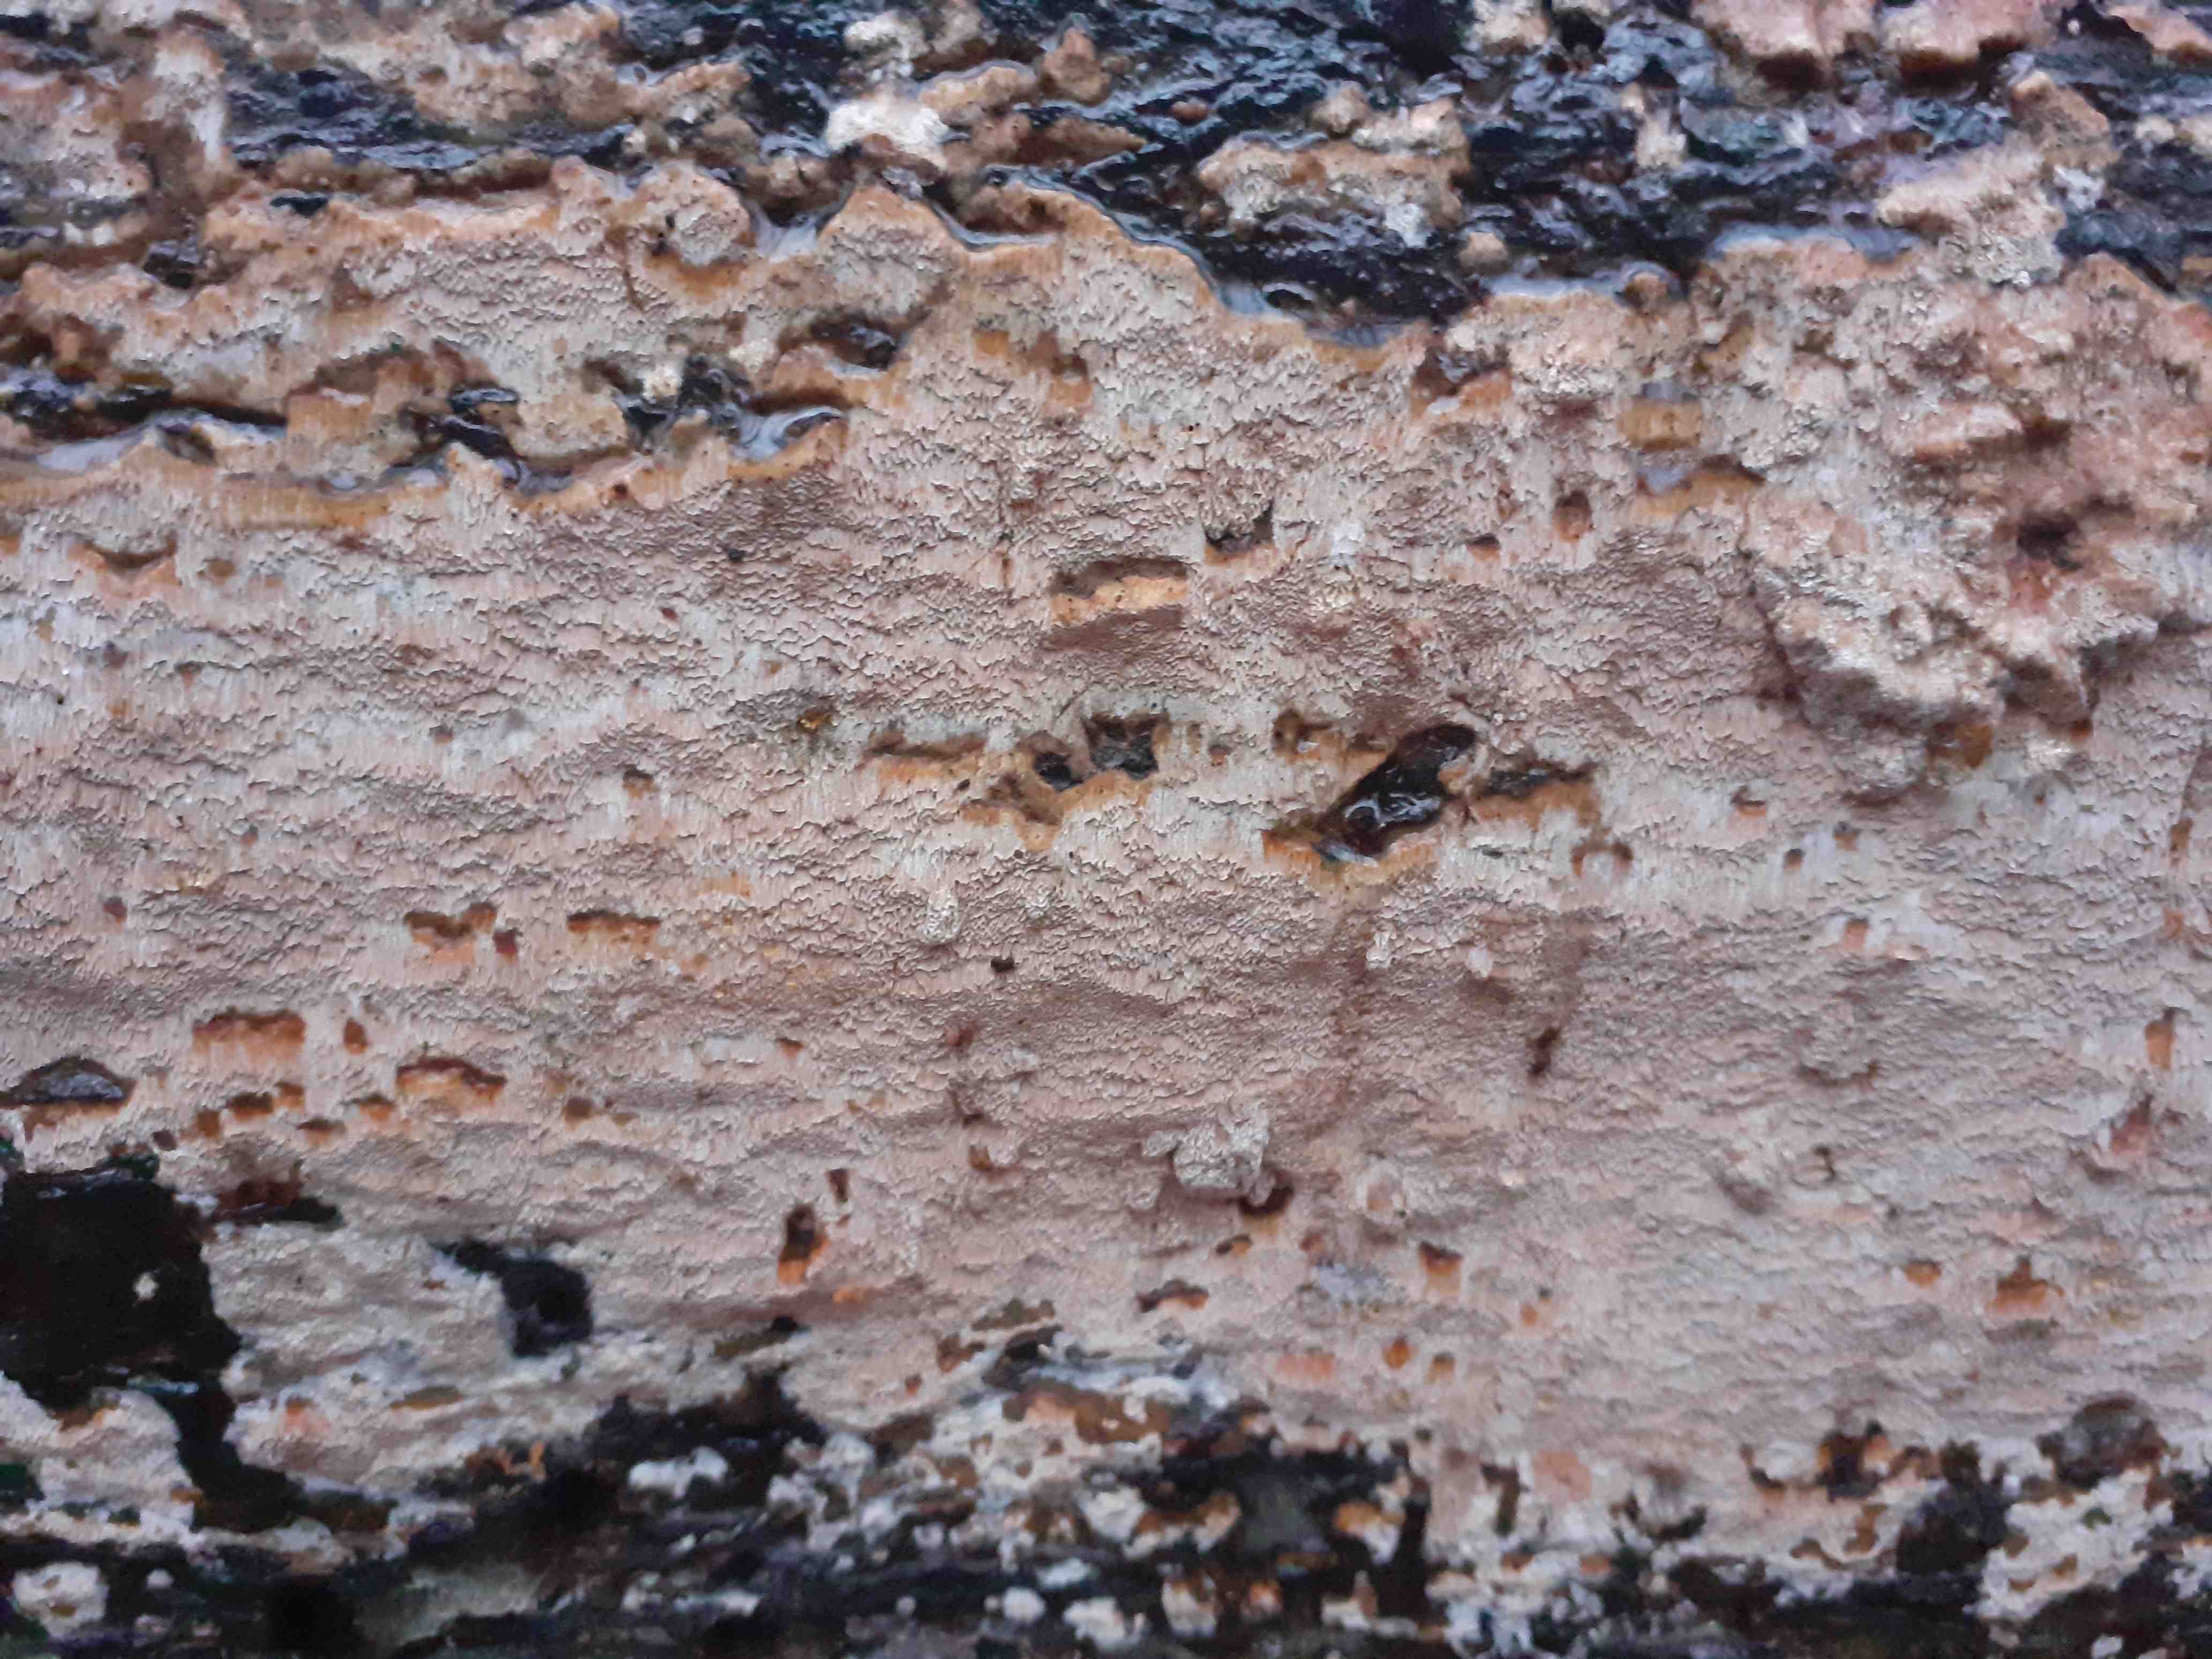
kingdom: Fungi
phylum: Basidiomycota
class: Agaricomycetes
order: Hymenochaetales
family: Schizoporaceae
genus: Xylodon
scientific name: Xylodon flaviporus
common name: gulporet tandsvamp
